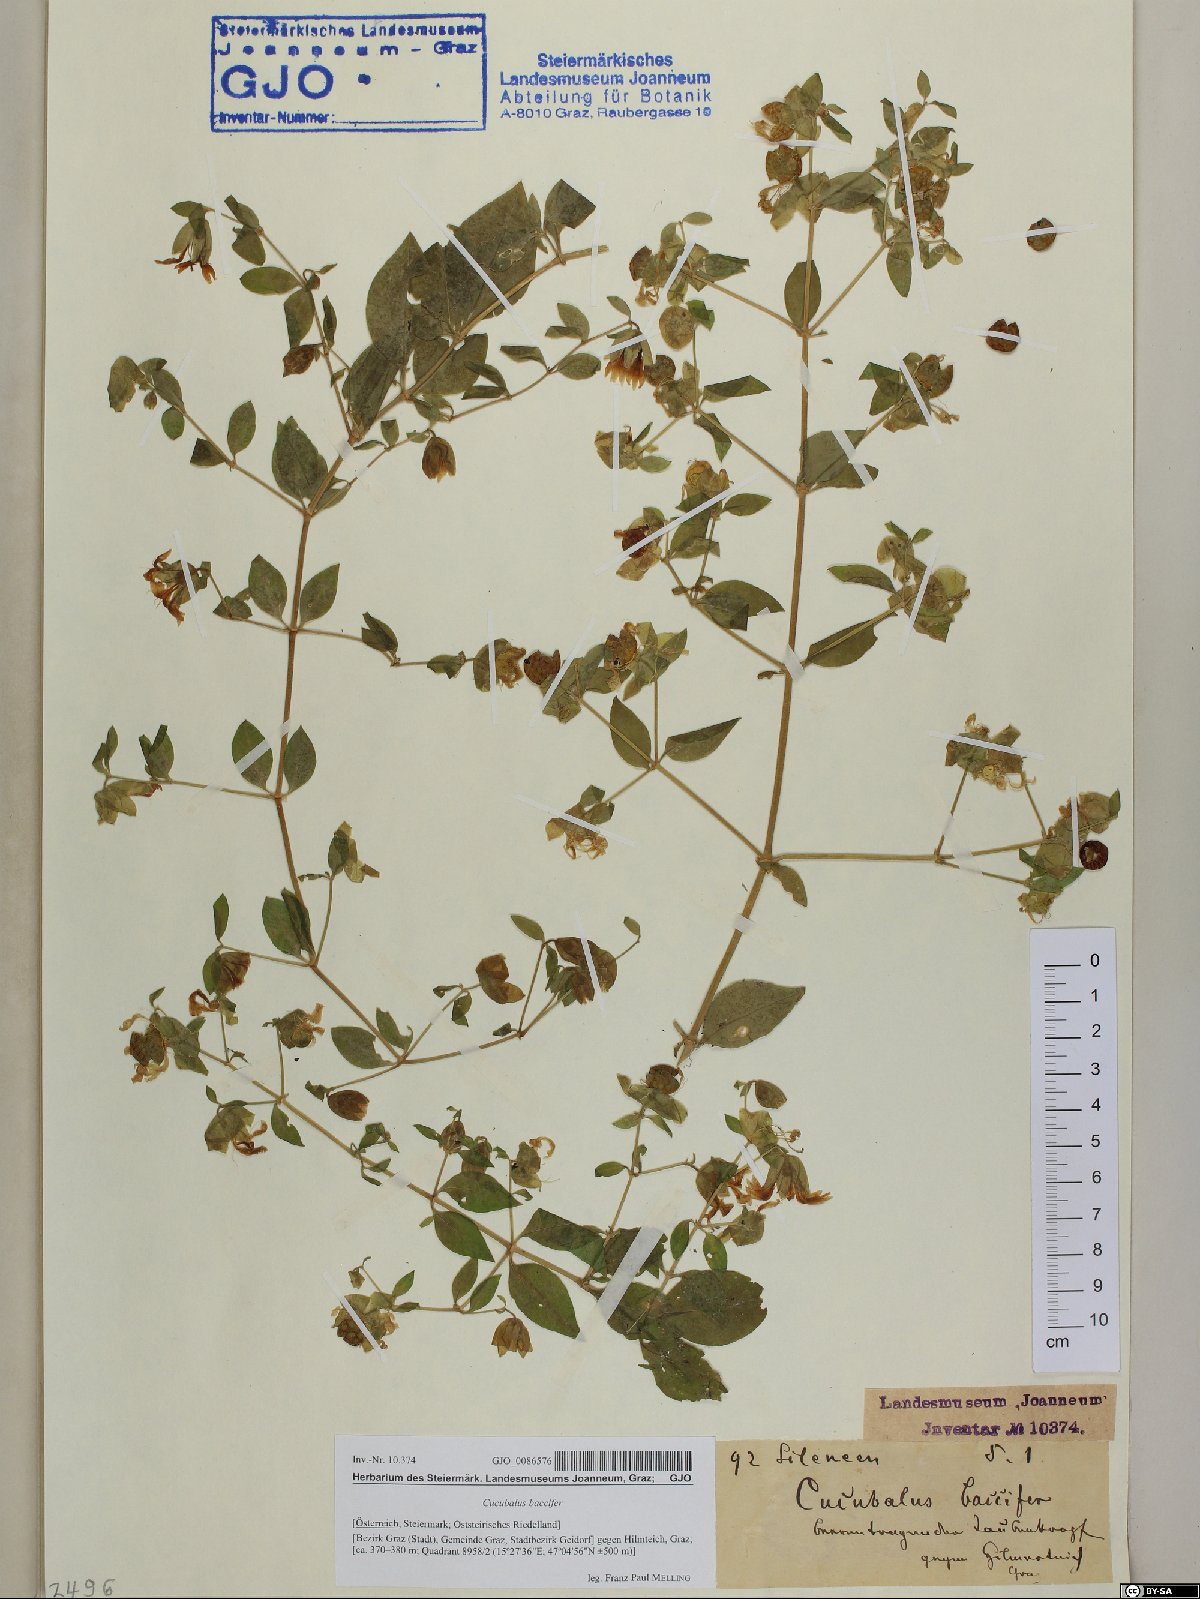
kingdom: Plantae
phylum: Tracheophyta
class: Magnoliopsida
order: Caryophyllales
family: Caryophyllaceae
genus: Silene
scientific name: Silene baccifera
